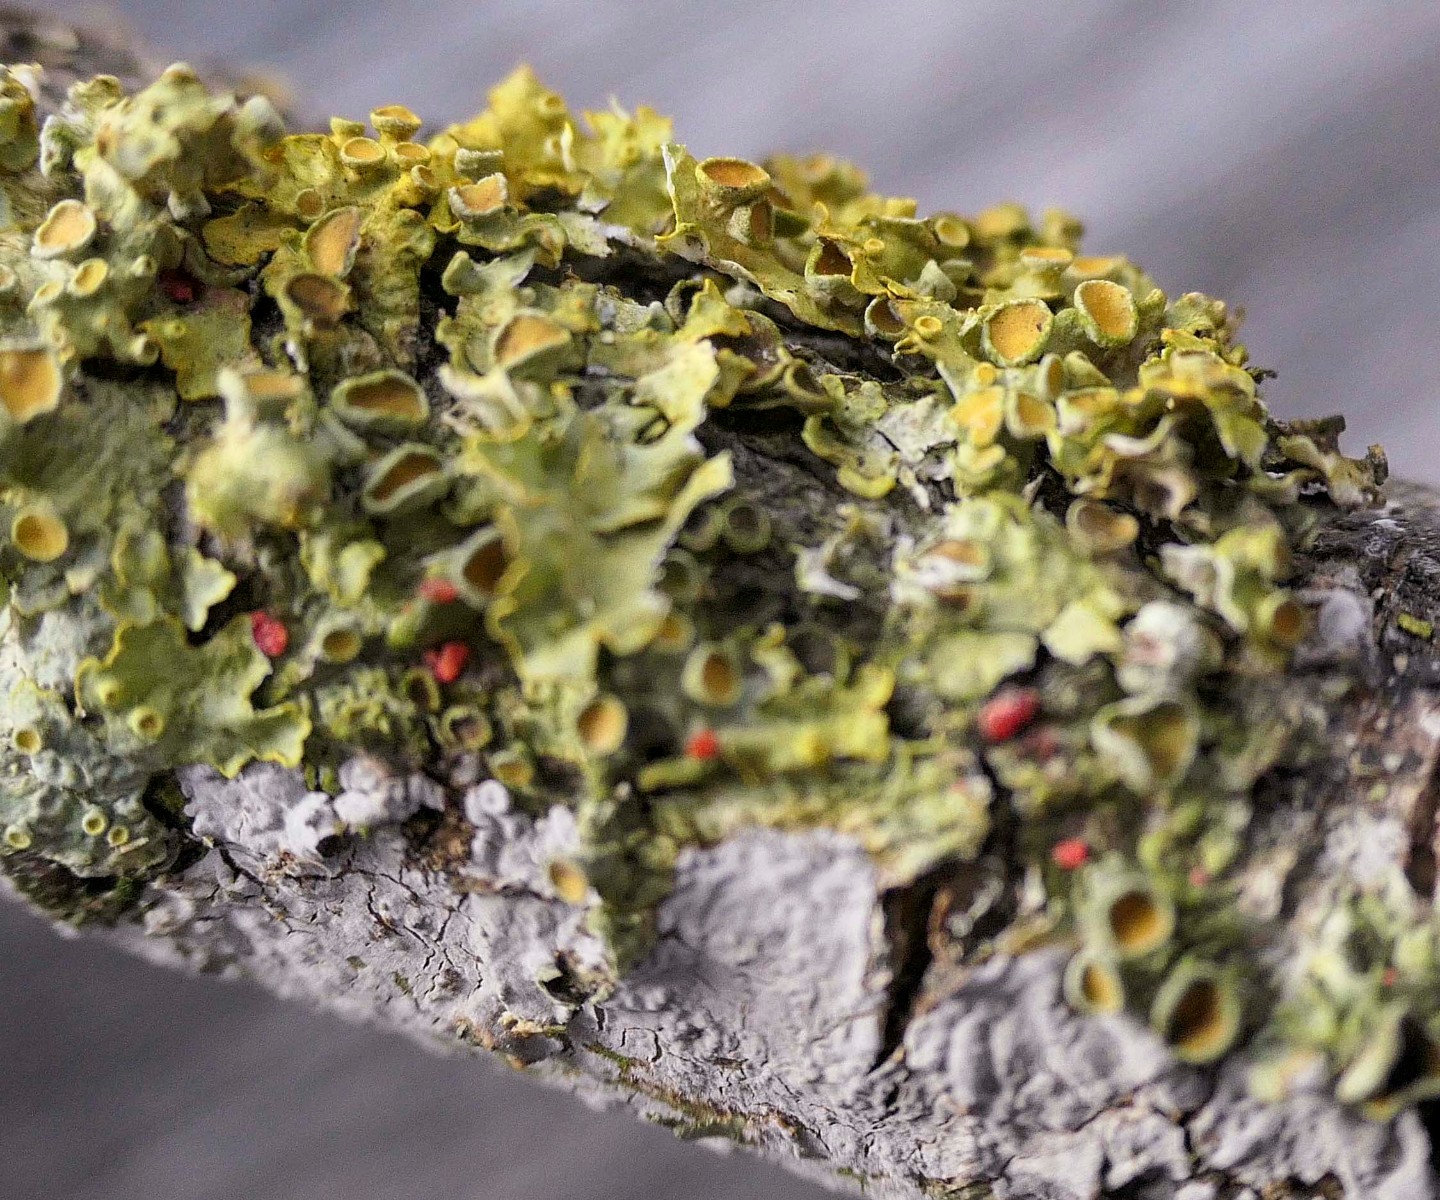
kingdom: Fungi
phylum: Ascomycota
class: Lecanoromycetes
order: Teloschistales
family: Teloschistaceae
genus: Xanthoria
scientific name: Xanthoria parietina
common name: almindelig væggelav
